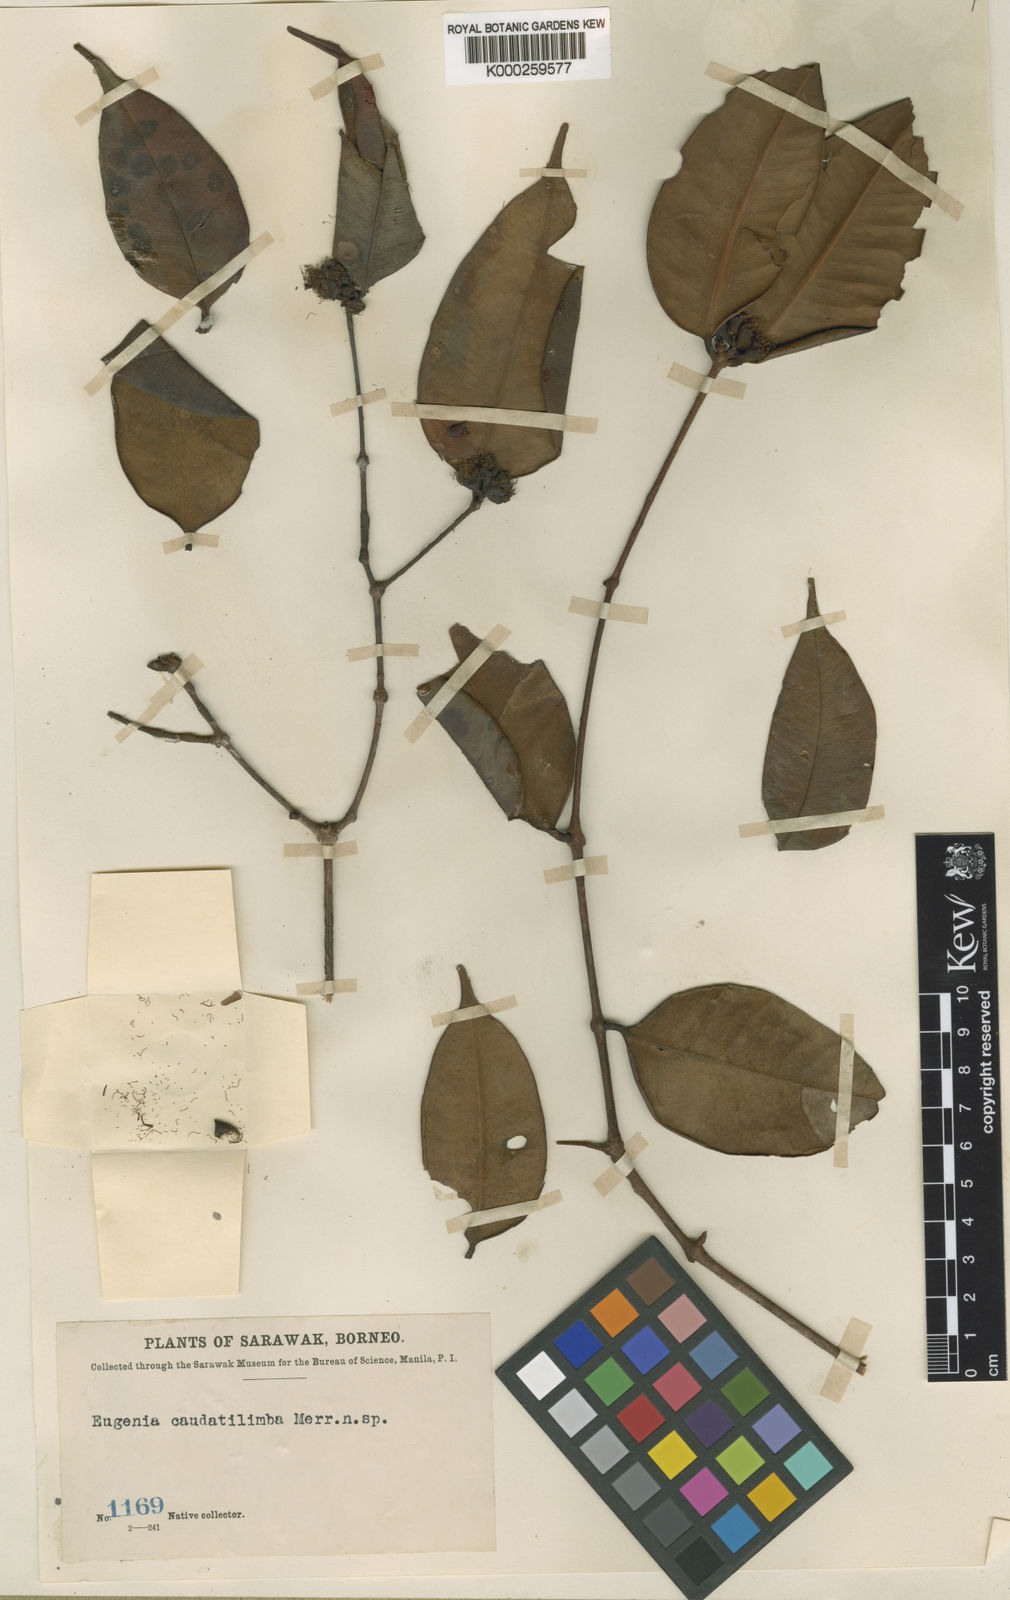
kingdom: Plantae
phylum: Tracheophyta
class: Magnoliopsida
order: Myrtales
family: Myrtaceae
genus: Syzygium
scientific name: Syzygium caudatilimbum
